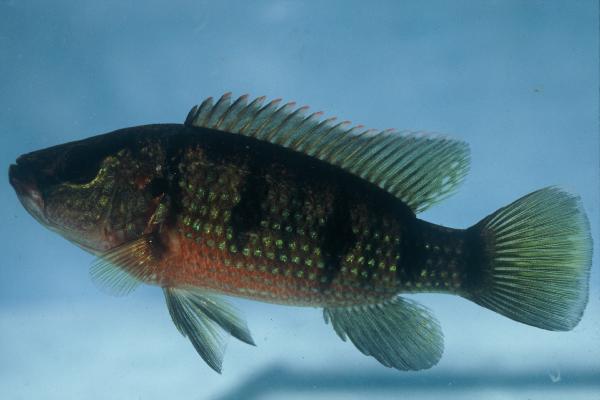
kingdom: Animalia
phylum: Chordata
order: Perciformes
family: Cichlidae
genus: Hemichromis
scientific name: Hemichromis elongatus
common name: Jewel cichlid
